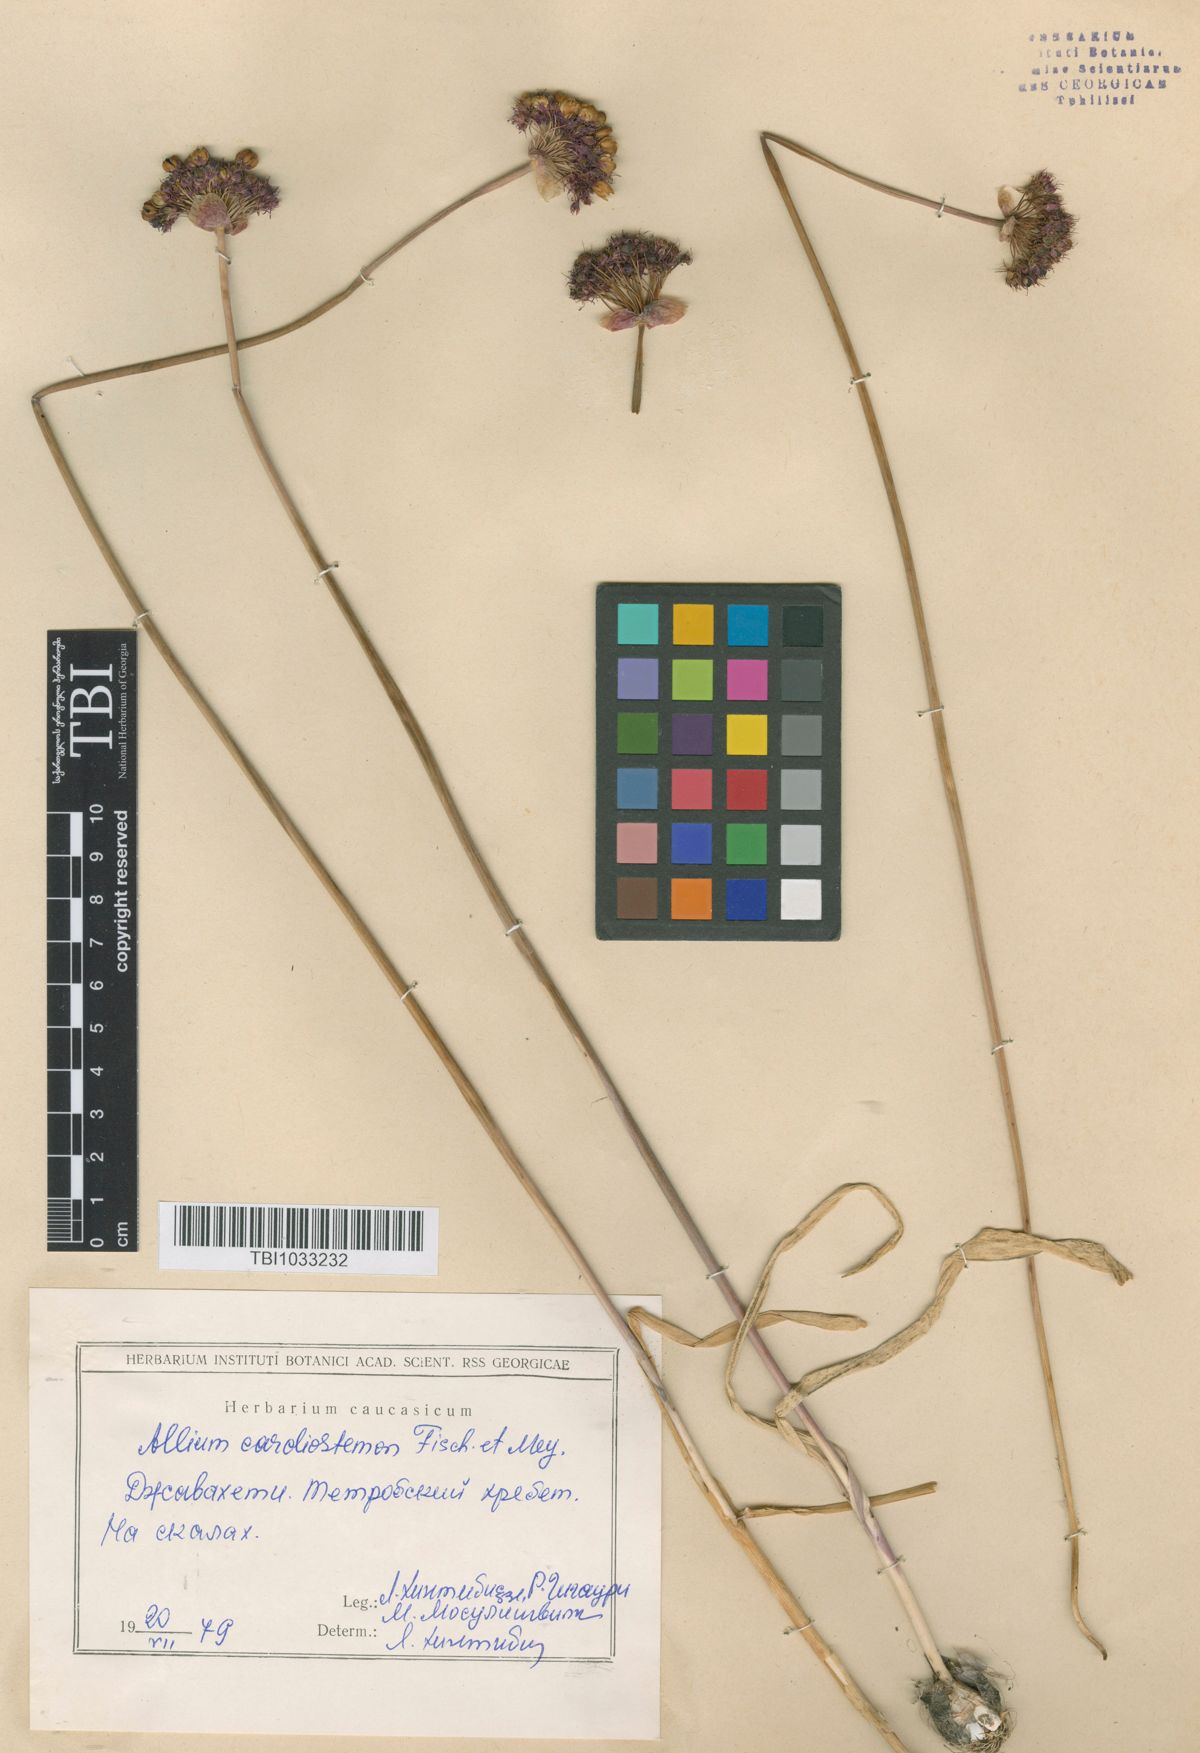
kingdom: Plantae
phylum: Tracheophyta
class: Liliopsida
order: Asparagales
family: Amaryllidaceae
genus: Allium
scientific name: Allium cardiostemon
